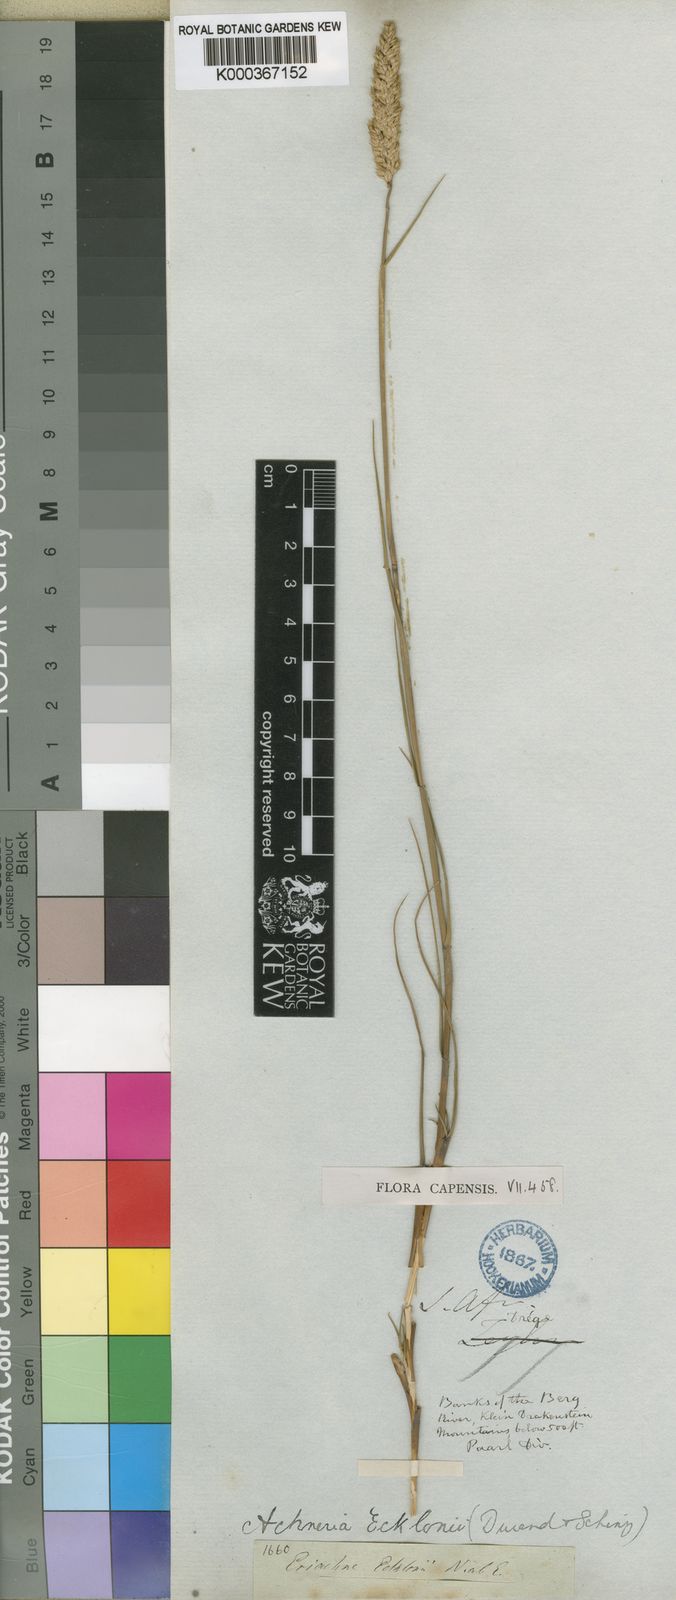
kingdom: Plantae
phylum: Tracheophyta
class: Liliopsida
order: Poales
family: Poaceae
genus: Pentameris
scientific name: Pentameris ecklonii
